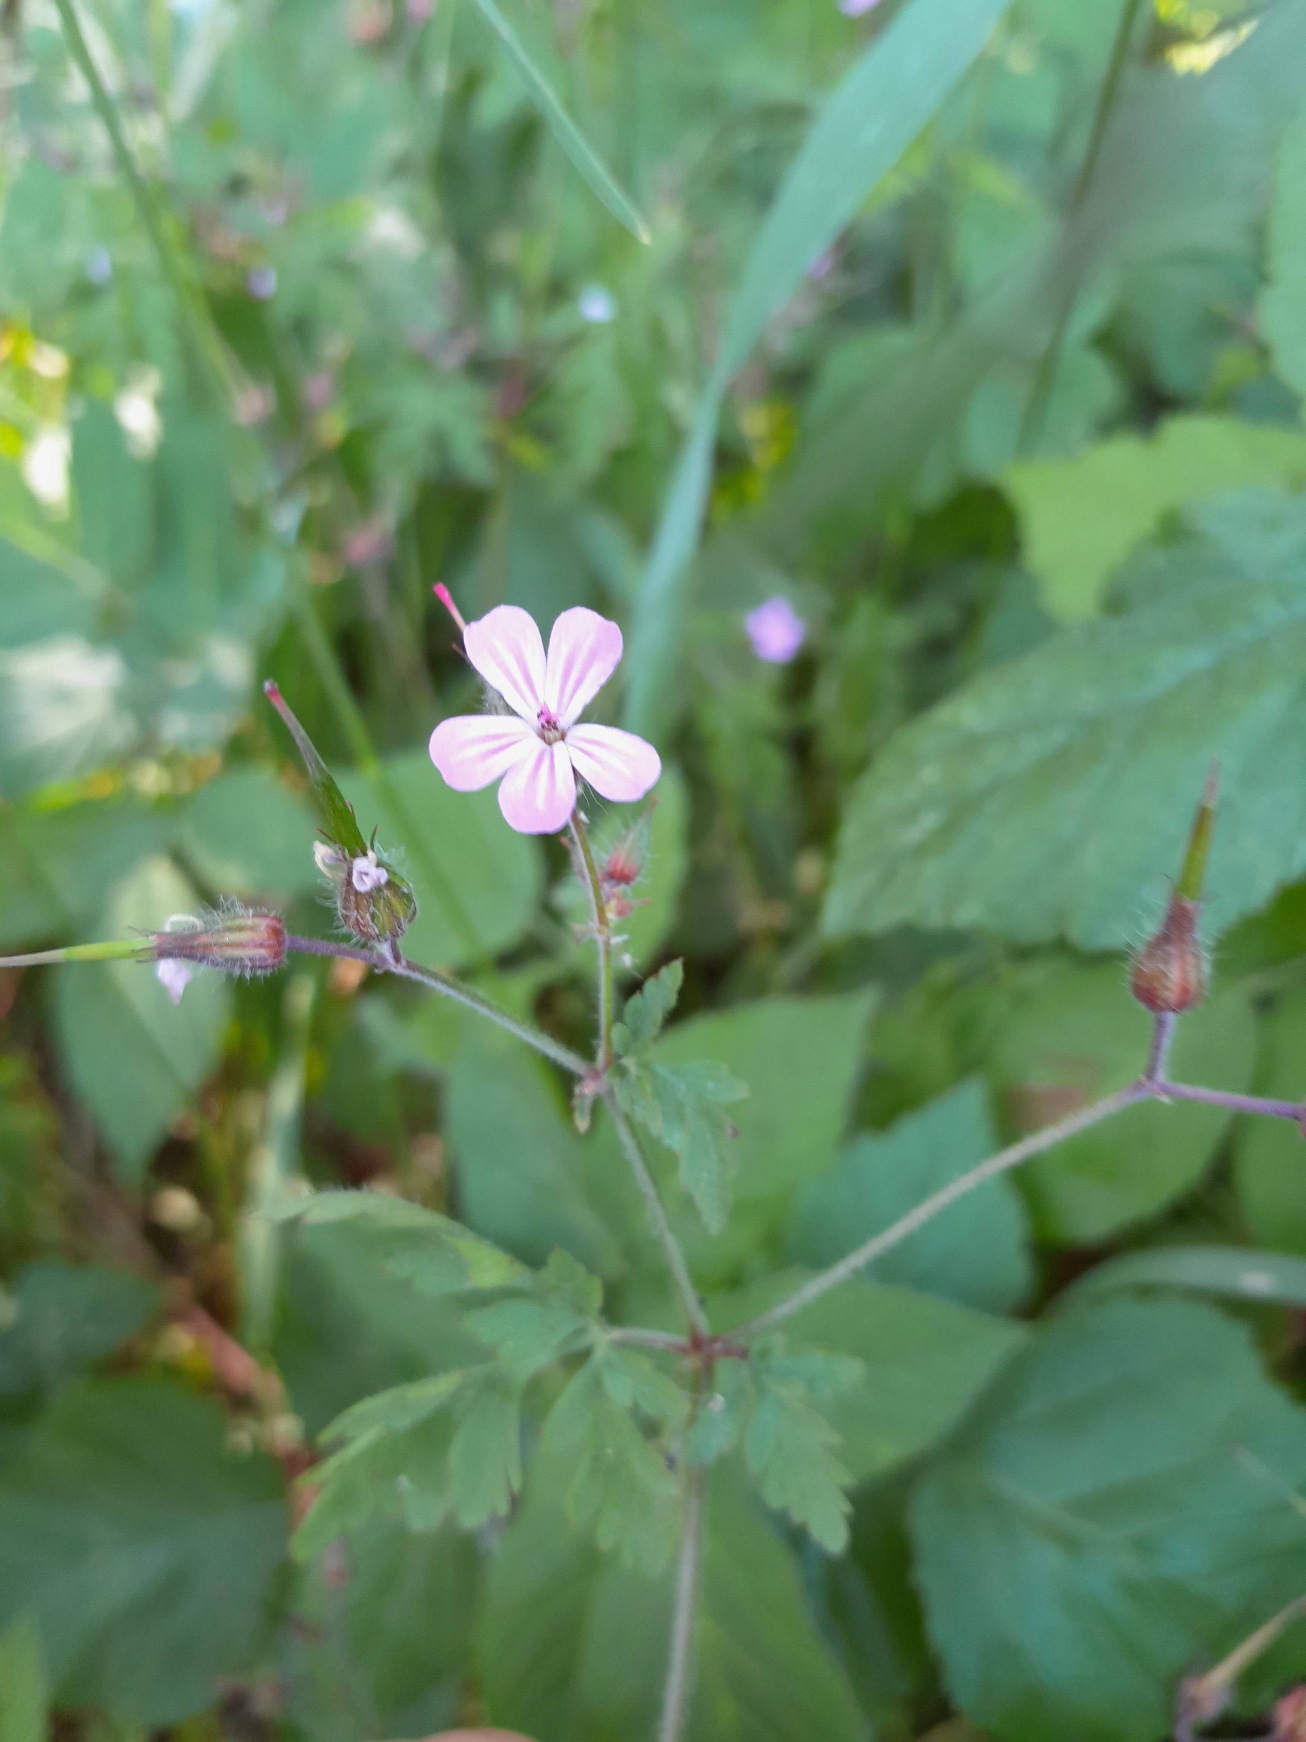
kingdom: Plantae
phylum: Tracheophyta
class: Magnoliopsida
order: Geraniales
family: Geraniaceae
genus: Geranium
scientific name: Geranium robertianum
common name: Stinkende storkenæb
